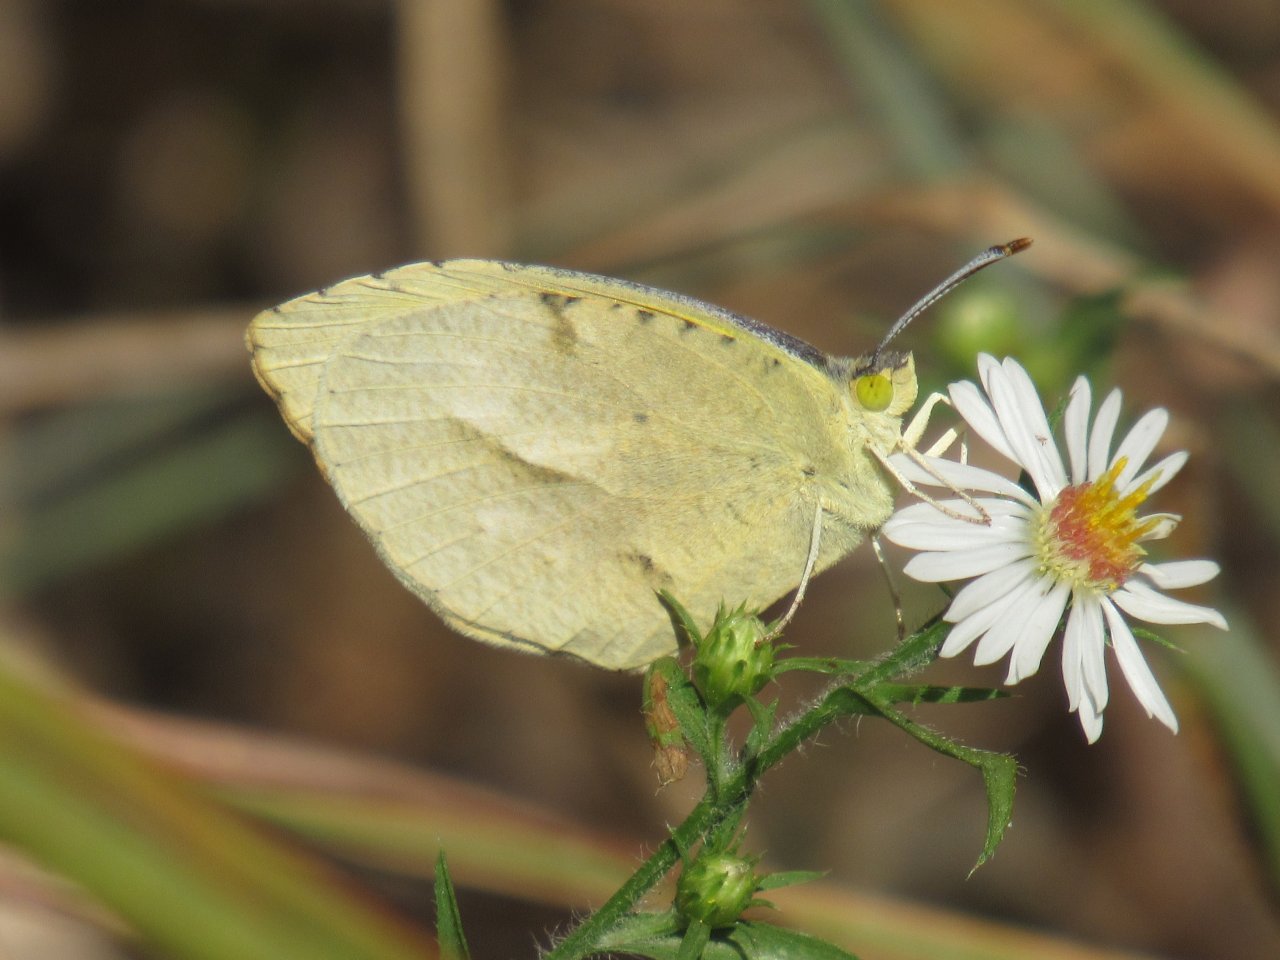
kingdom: Animalia
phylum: Arthropoda
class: Insecta
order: Lepidoptera
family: Pieridae
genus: Abaeis
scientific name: Abaeis nicippe
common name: Sleepy Orange
